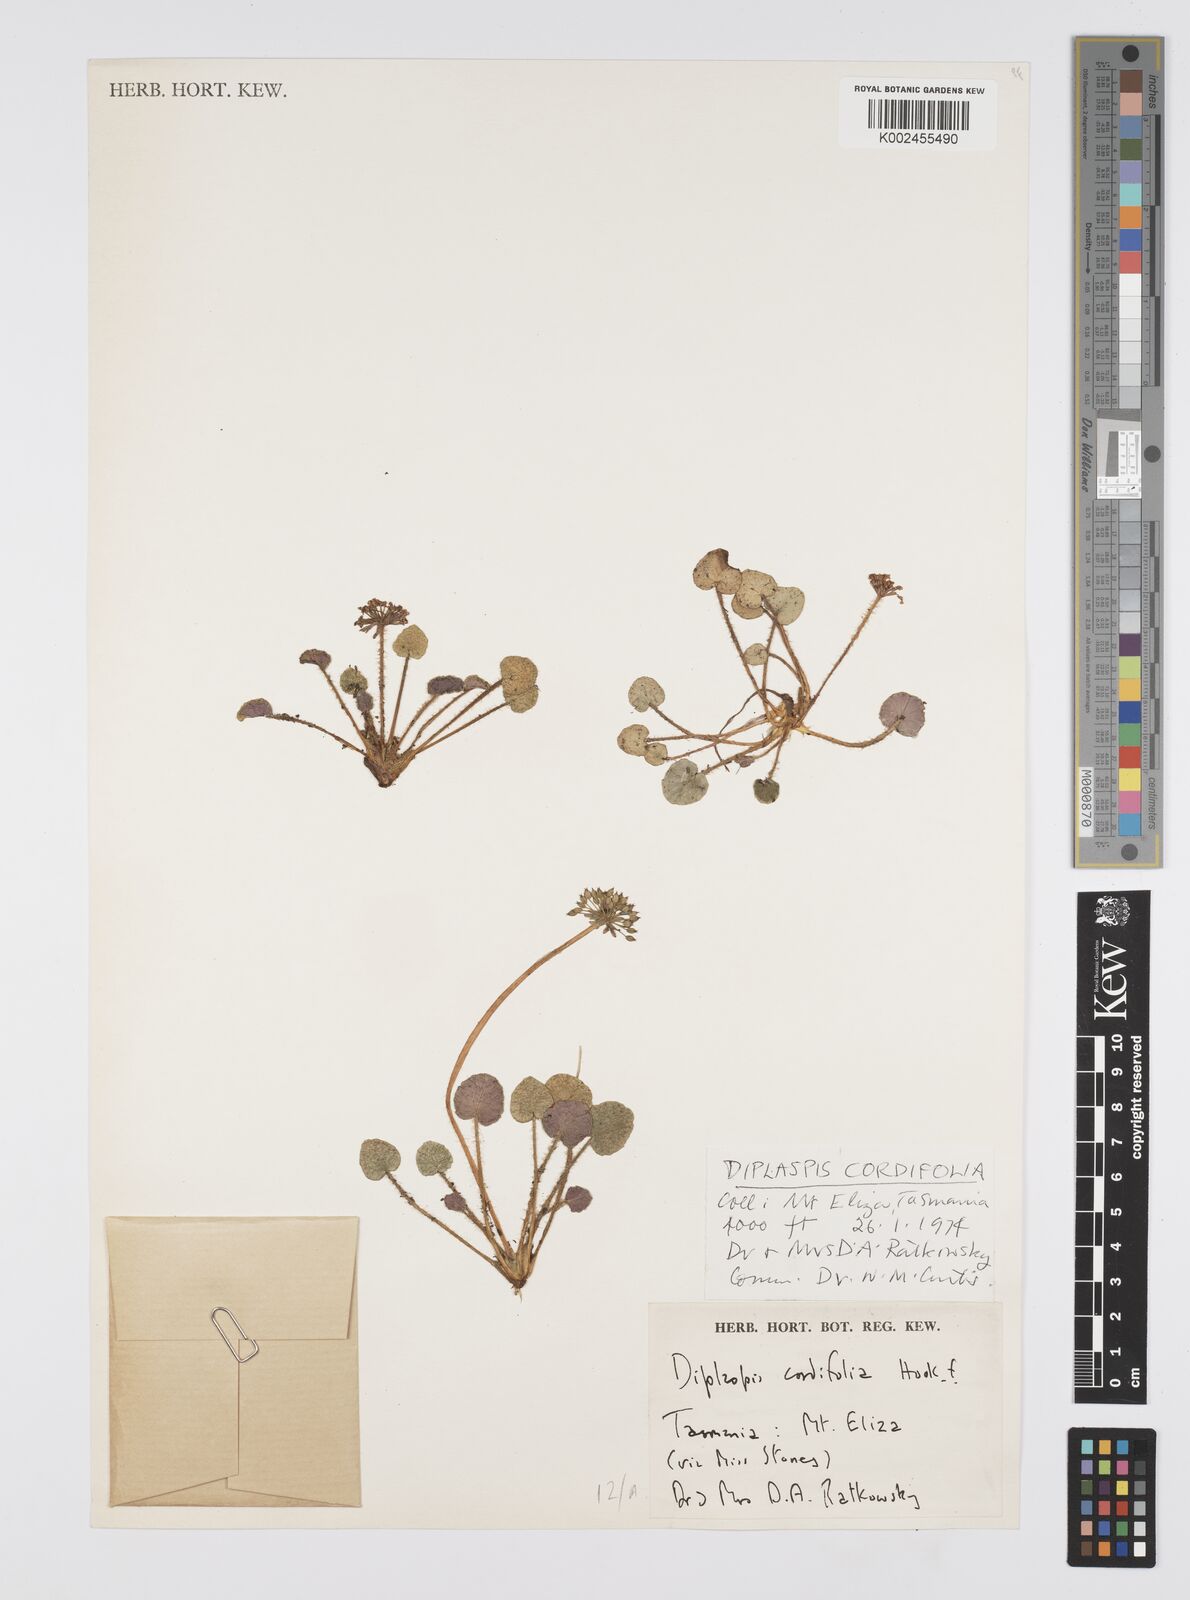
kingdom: Plantae
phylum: Tracheophyta
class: Magnoliopsida
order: Apiales
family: Apiaceae
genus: Diplaspis
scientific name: Diplaspis cordifolia
